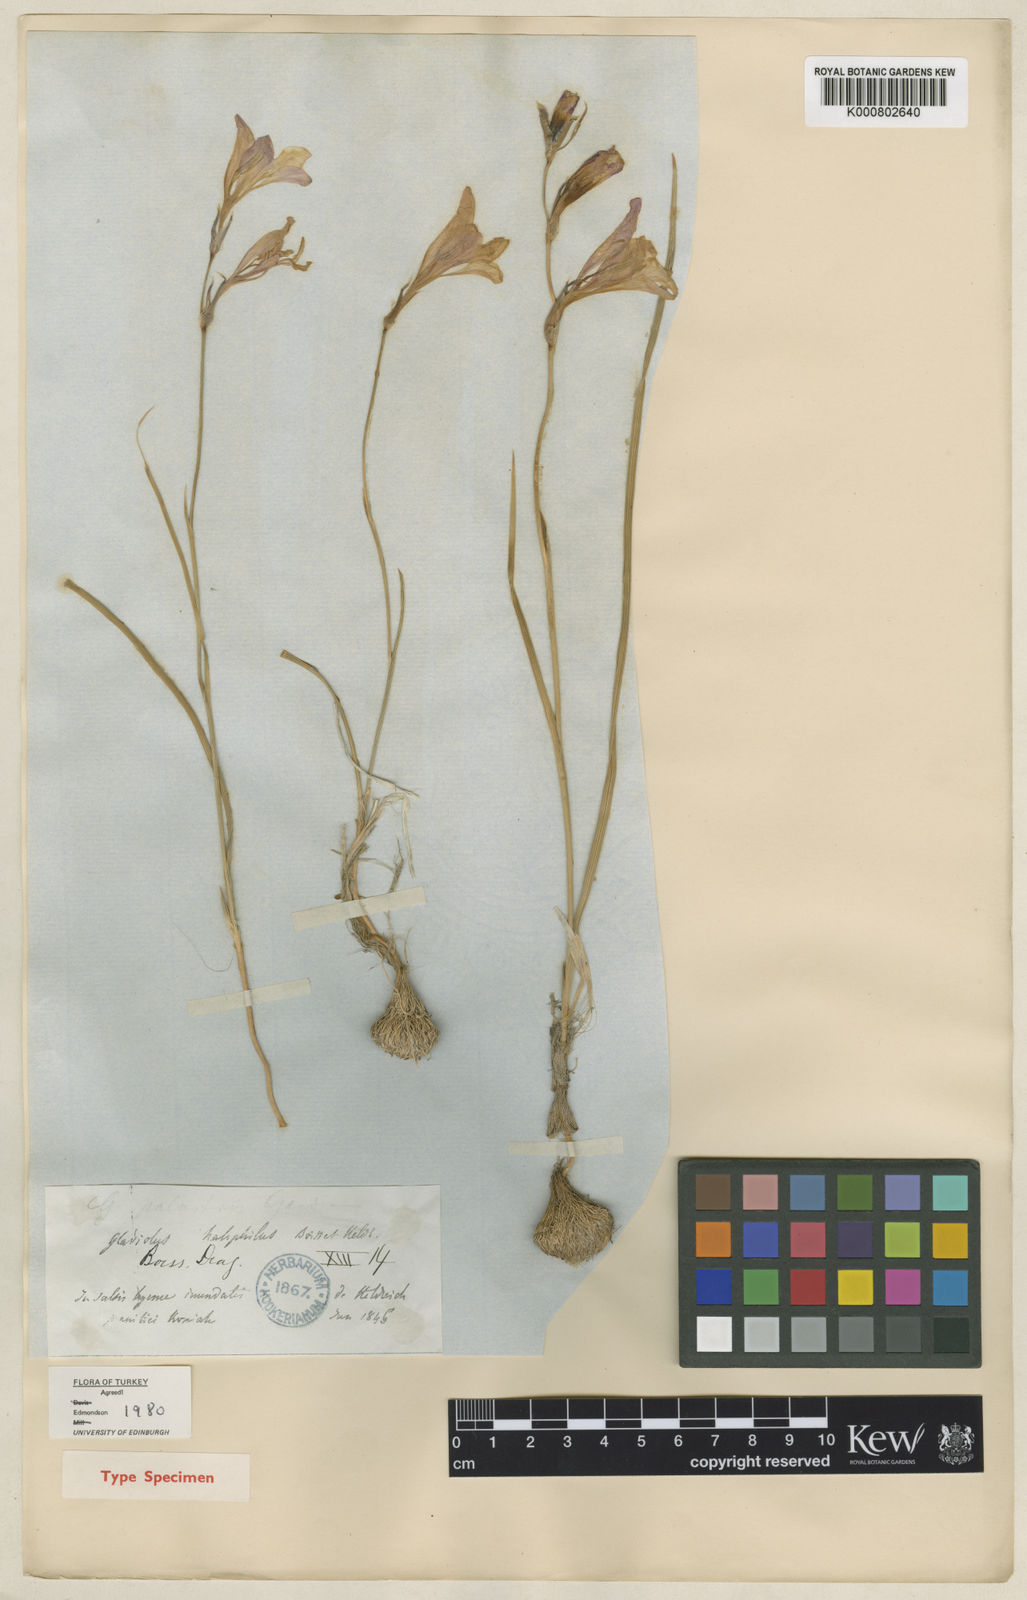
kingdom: Plantae
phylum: Tracheophyta
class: Liliopsida
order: Asparagales
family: Iridaceae
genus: Gladiolus
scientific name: Gladiolus halophilus
